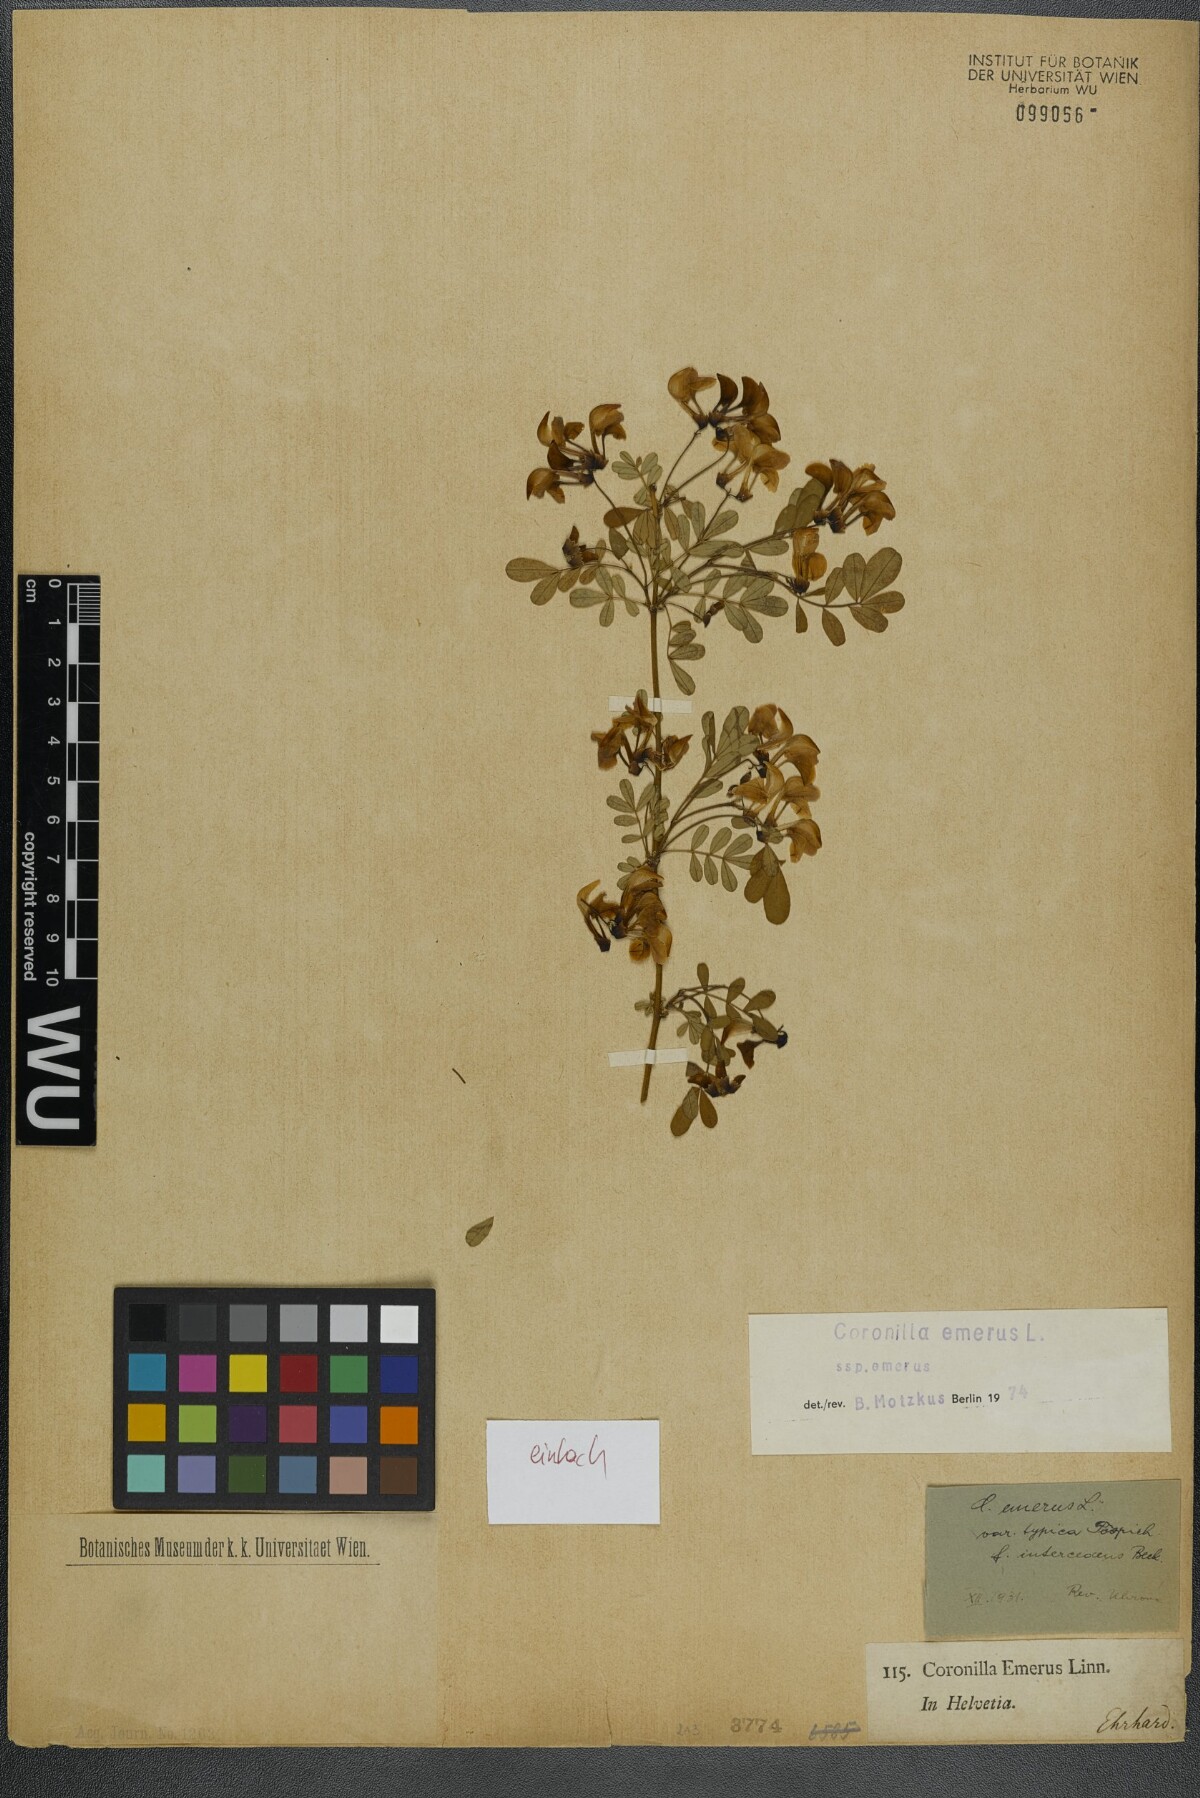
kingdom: Plantae
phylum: Tracheophyta
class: Magnoliopsida
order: Fabales
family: Fabaceae
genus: Hippocrepis
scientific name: Hippocrepis emerus
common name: Scorpion senna
